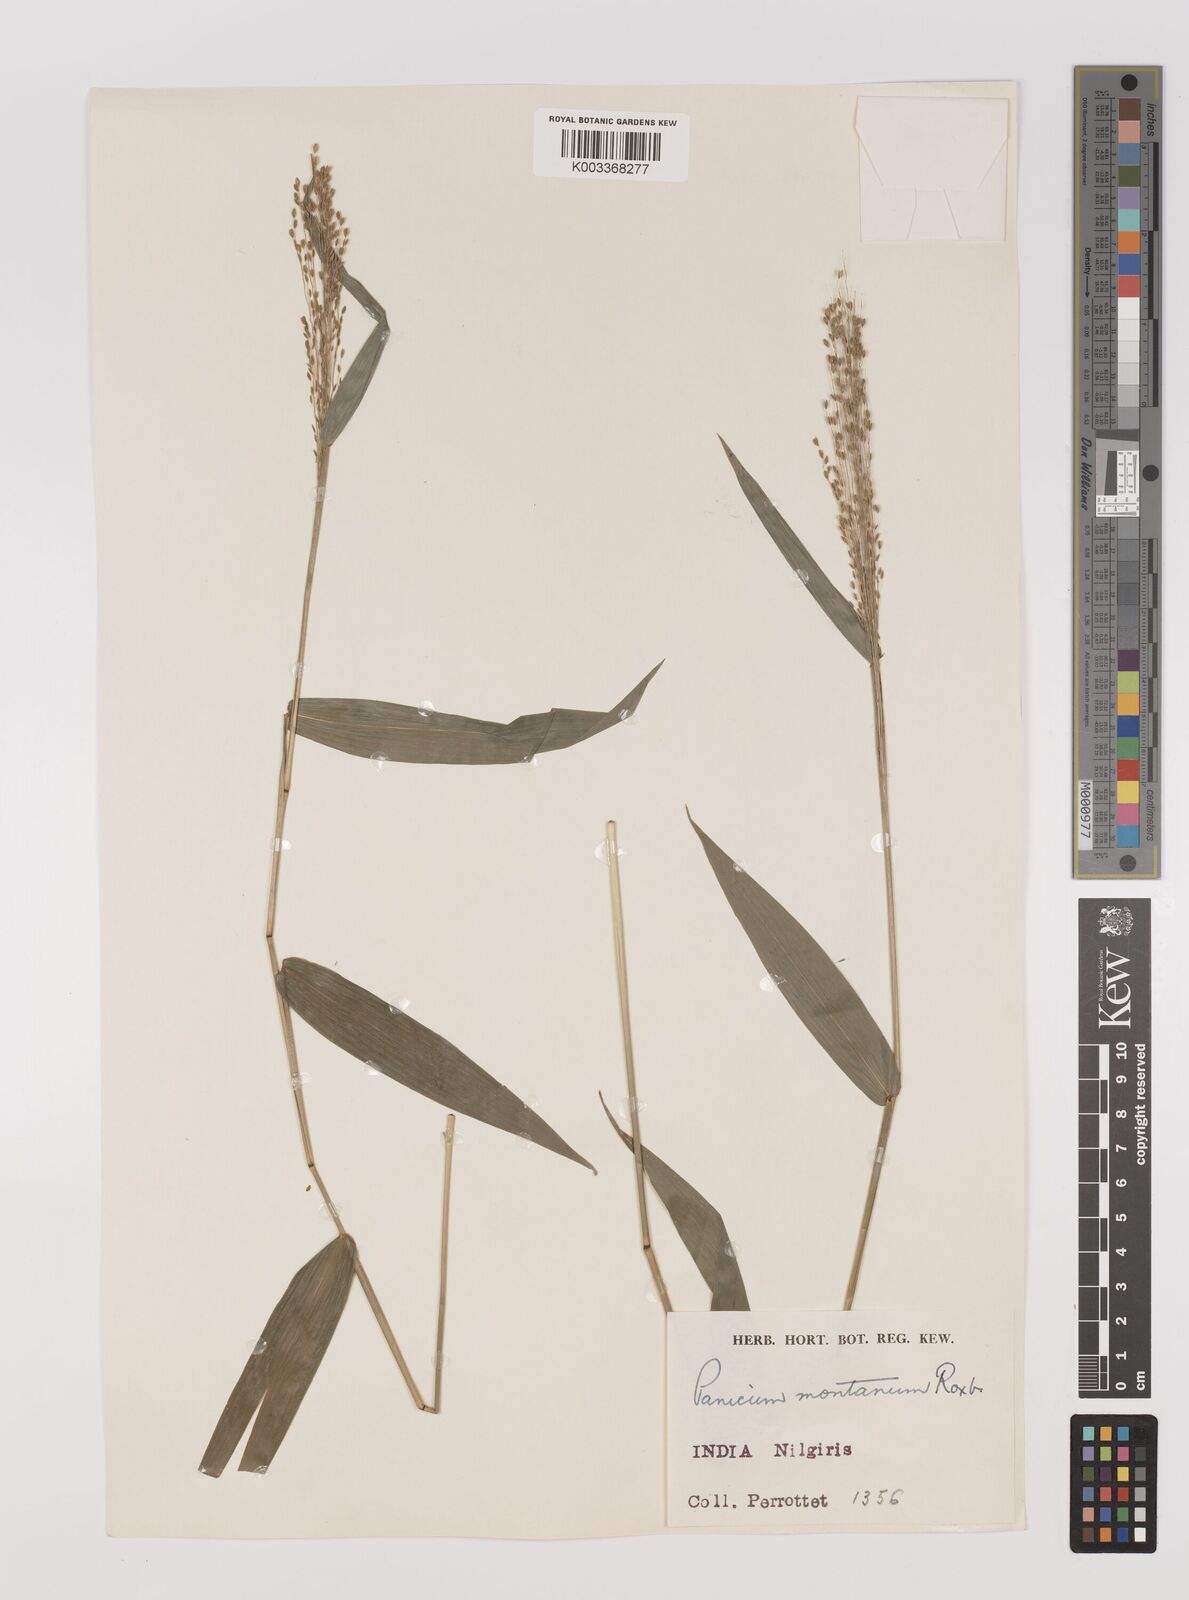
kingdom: Plantae
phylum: Tracheophyta
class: Liliopsida
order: Poales
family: Poaceae
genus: Panicum
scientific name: Panicum notatum
